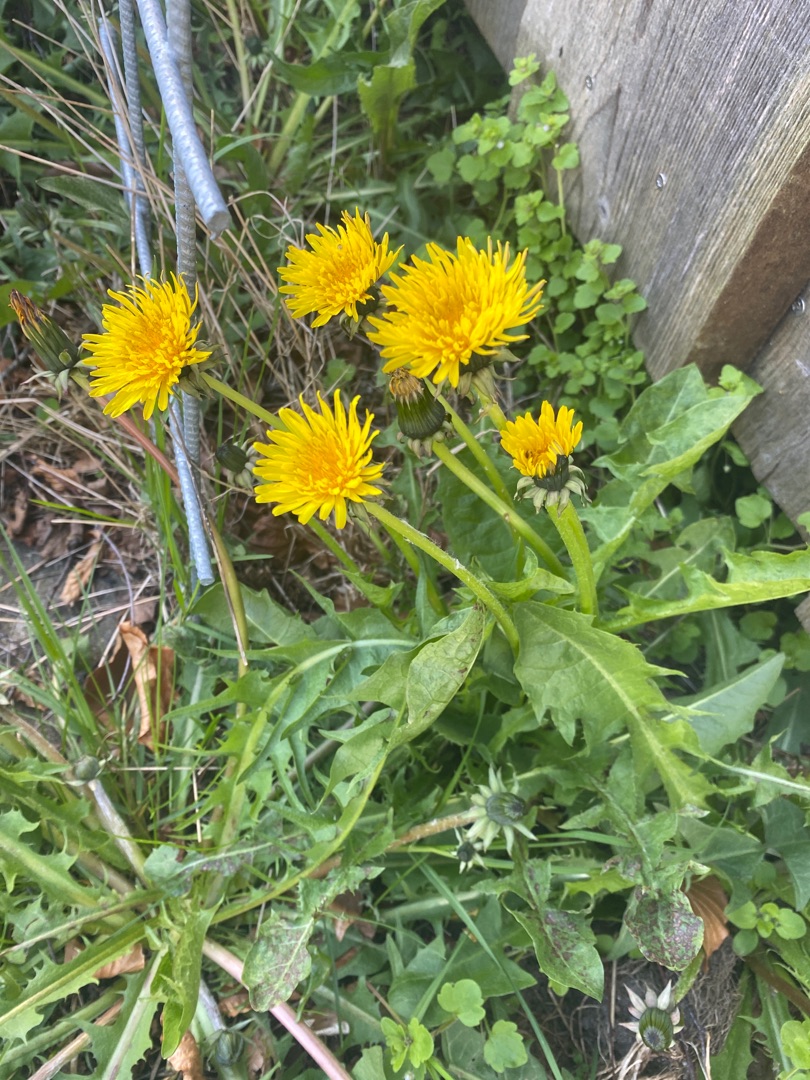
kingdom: Plantae
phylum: Tracheophyta
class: Magnoliopsida
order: Asterales
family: Asteraceae
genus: Taraxacum
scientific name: Taraxacum
